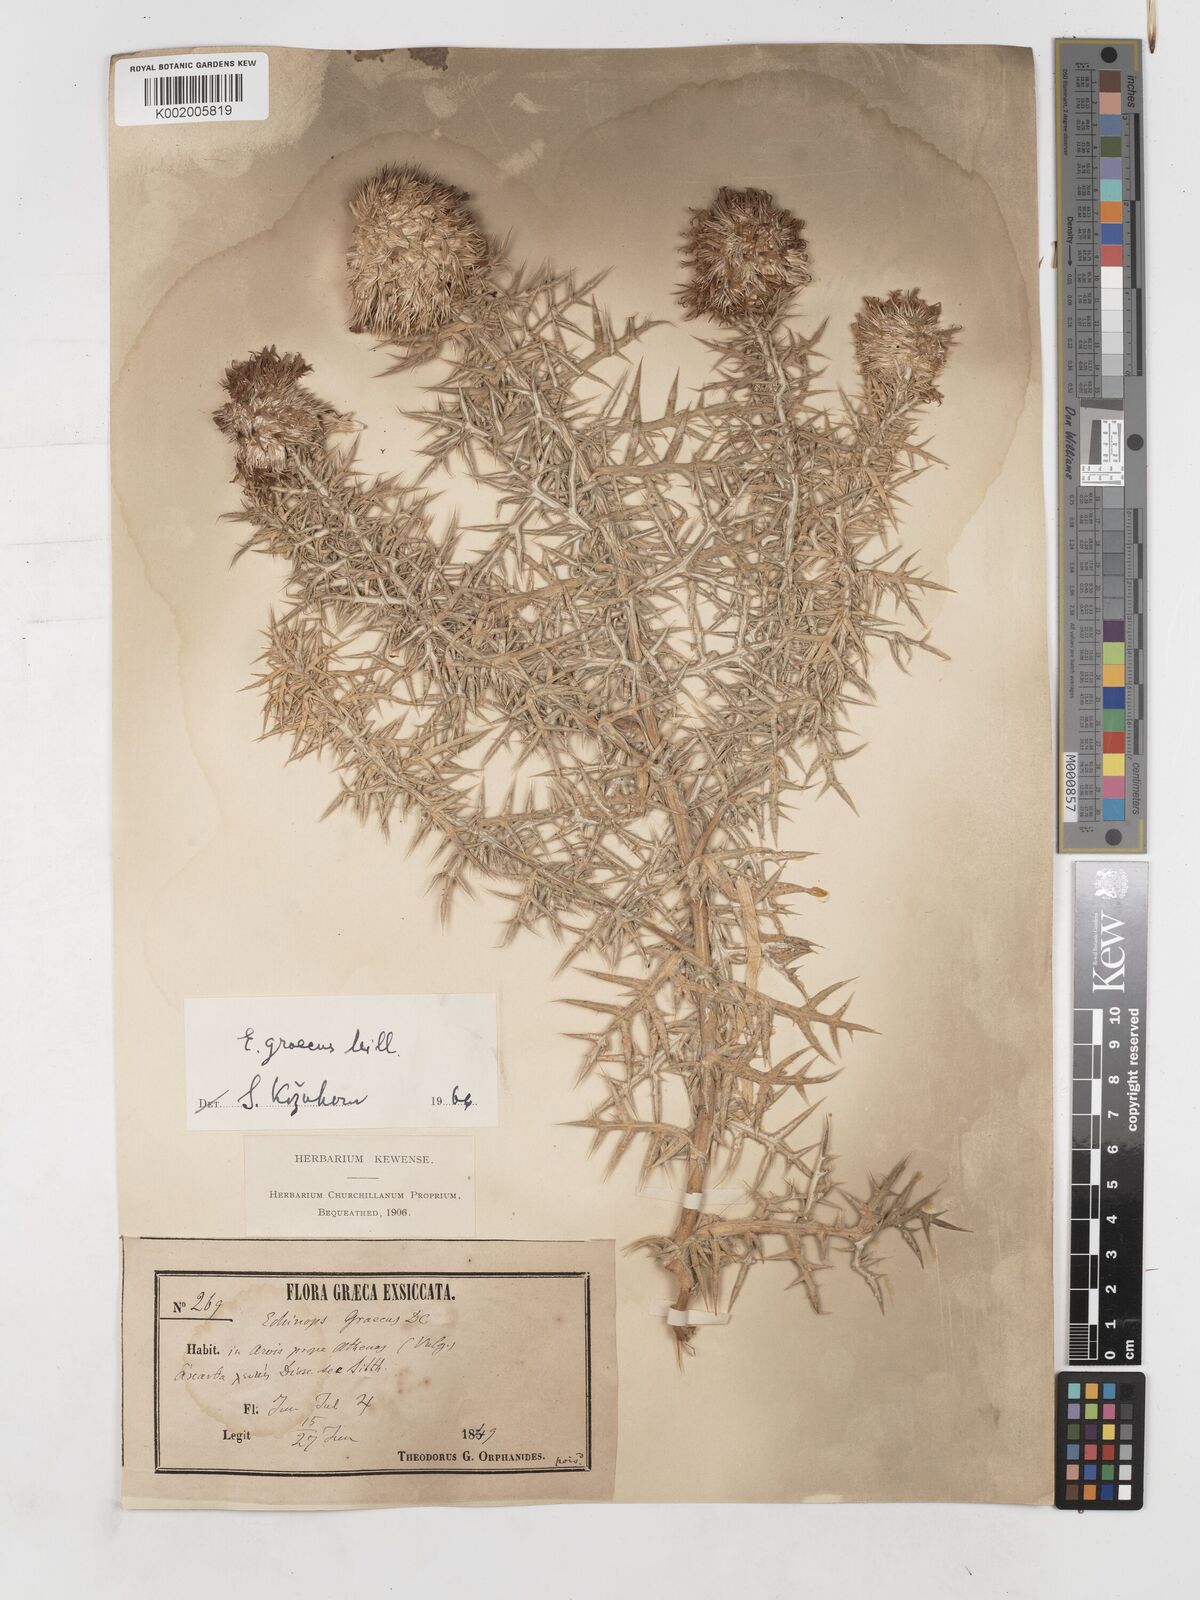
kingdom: Plantae
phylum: Tracheophyta
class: Magnoliopsida
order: Asterales
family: Asteraceae
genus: Echinops
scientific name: Echinops graecus
